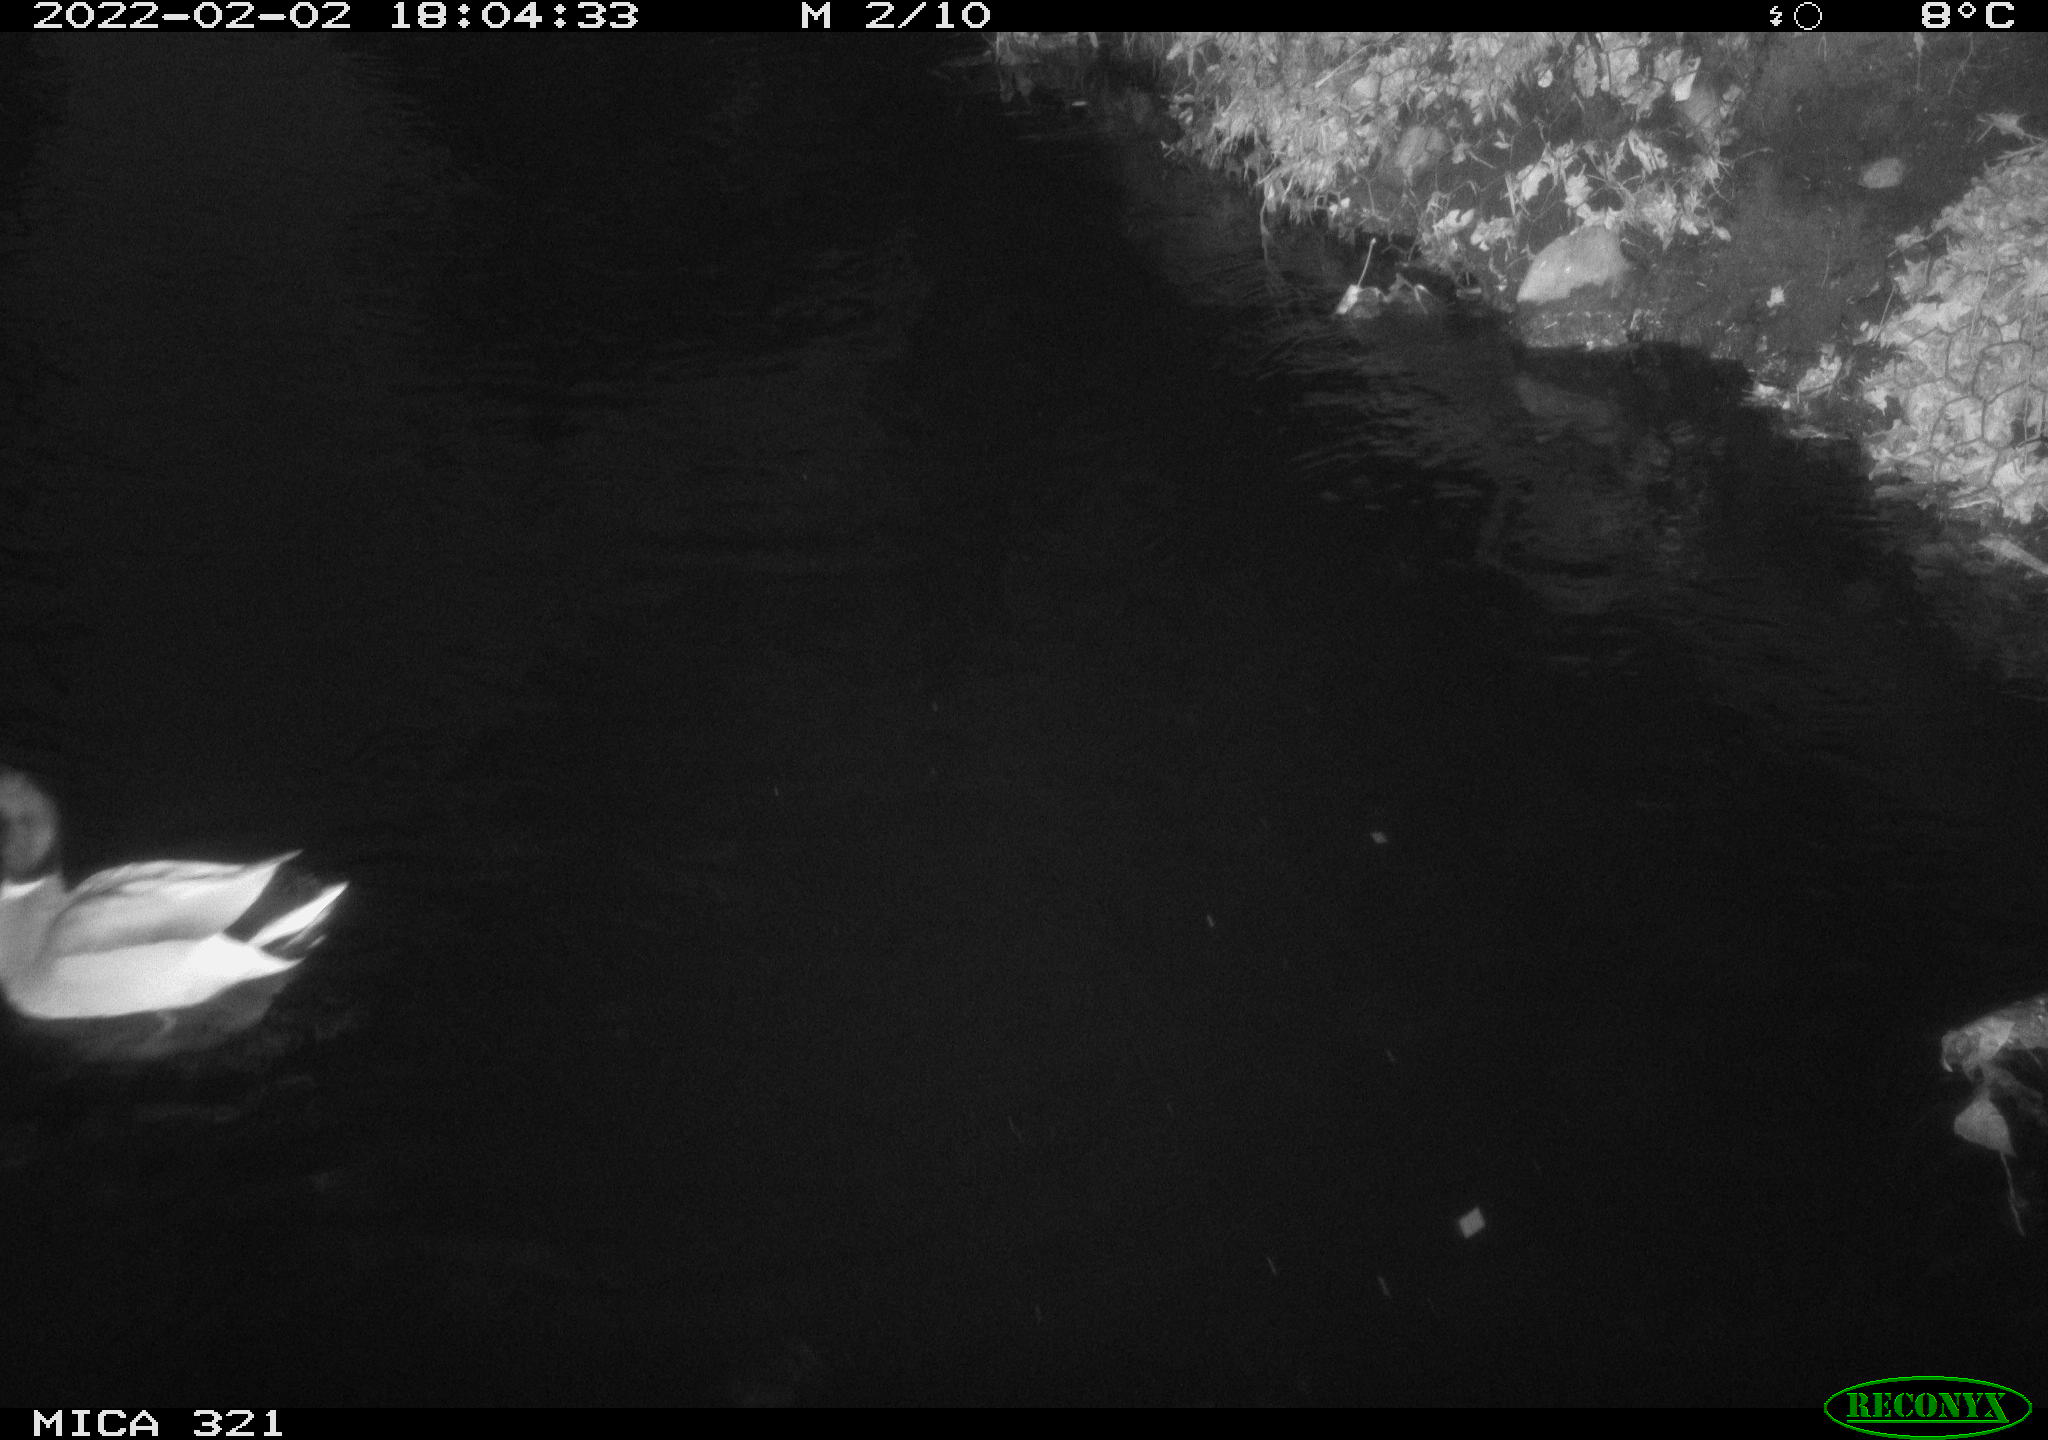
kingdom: Animalia
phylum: Chordata
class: Aves
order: Anseriformes
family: Anatidae
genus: Anas
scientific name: Anas
